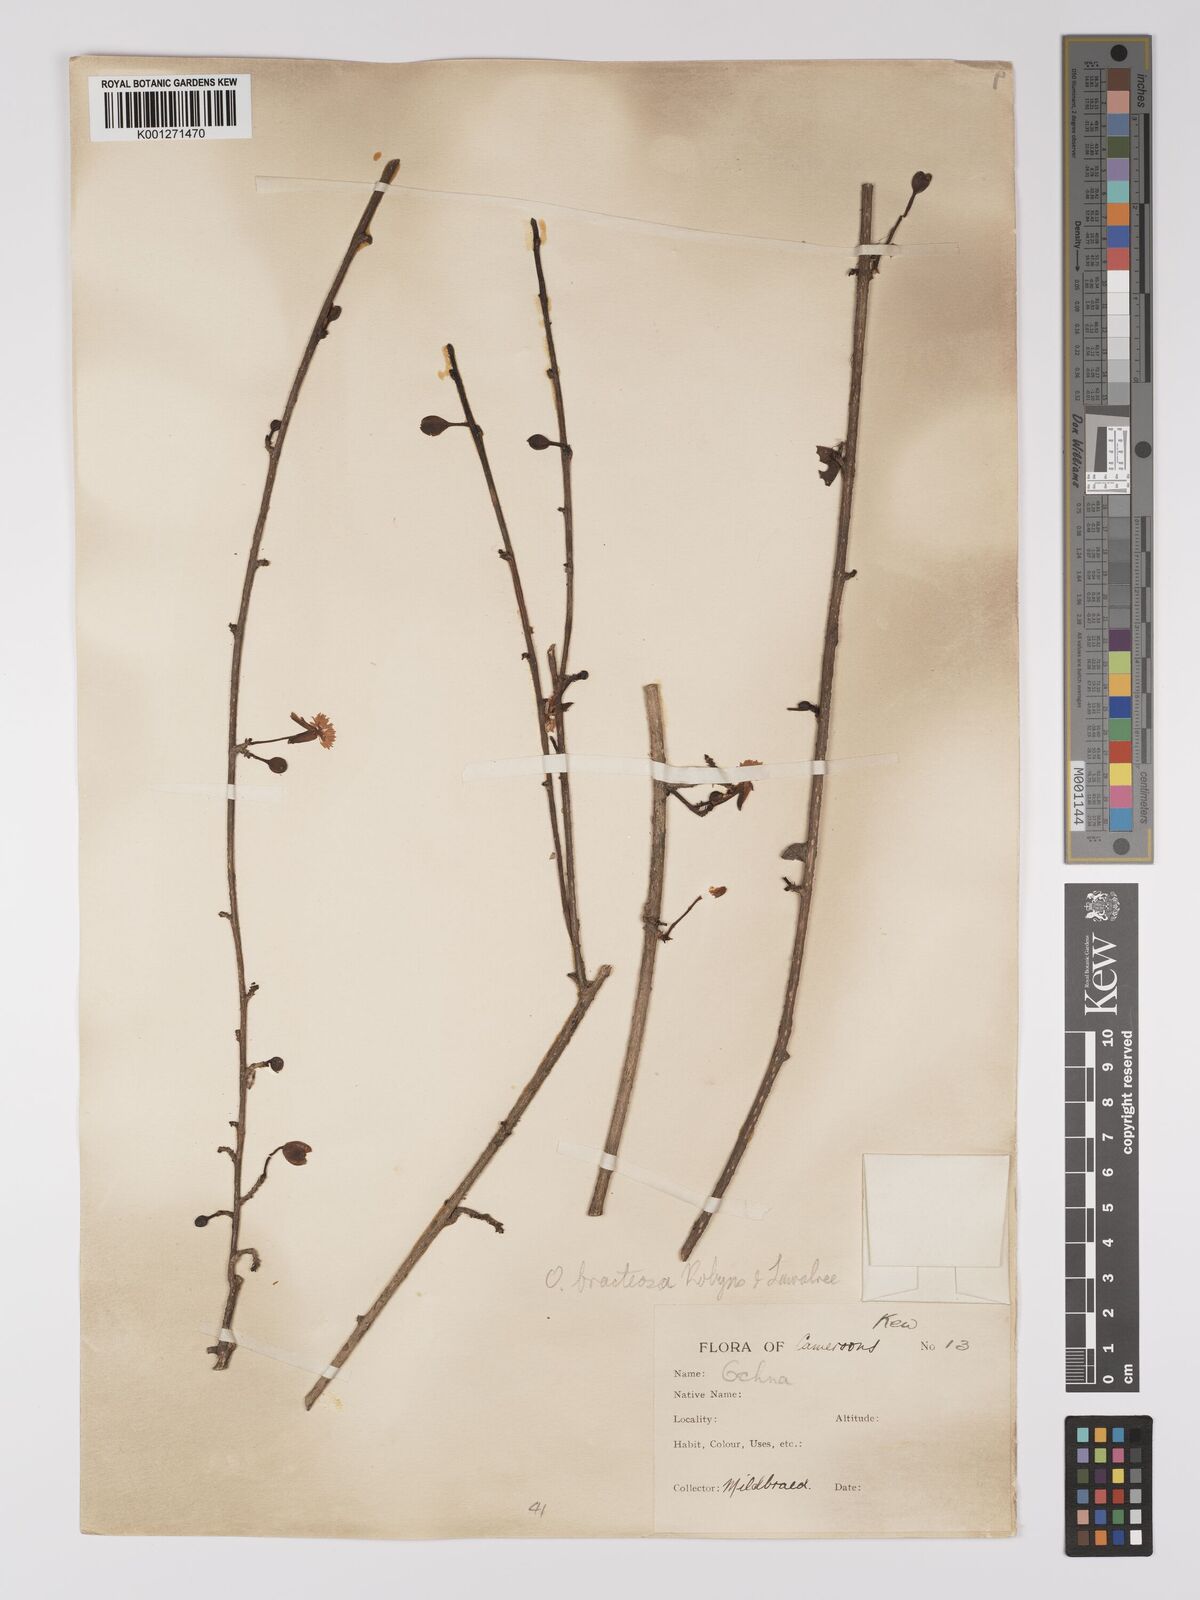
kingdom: Plantae
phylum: Tracheophyta
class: Magnoliopsida
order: Malpighiales
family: Ochnaceae
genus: Ochna
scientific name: Ochna bracteosa
